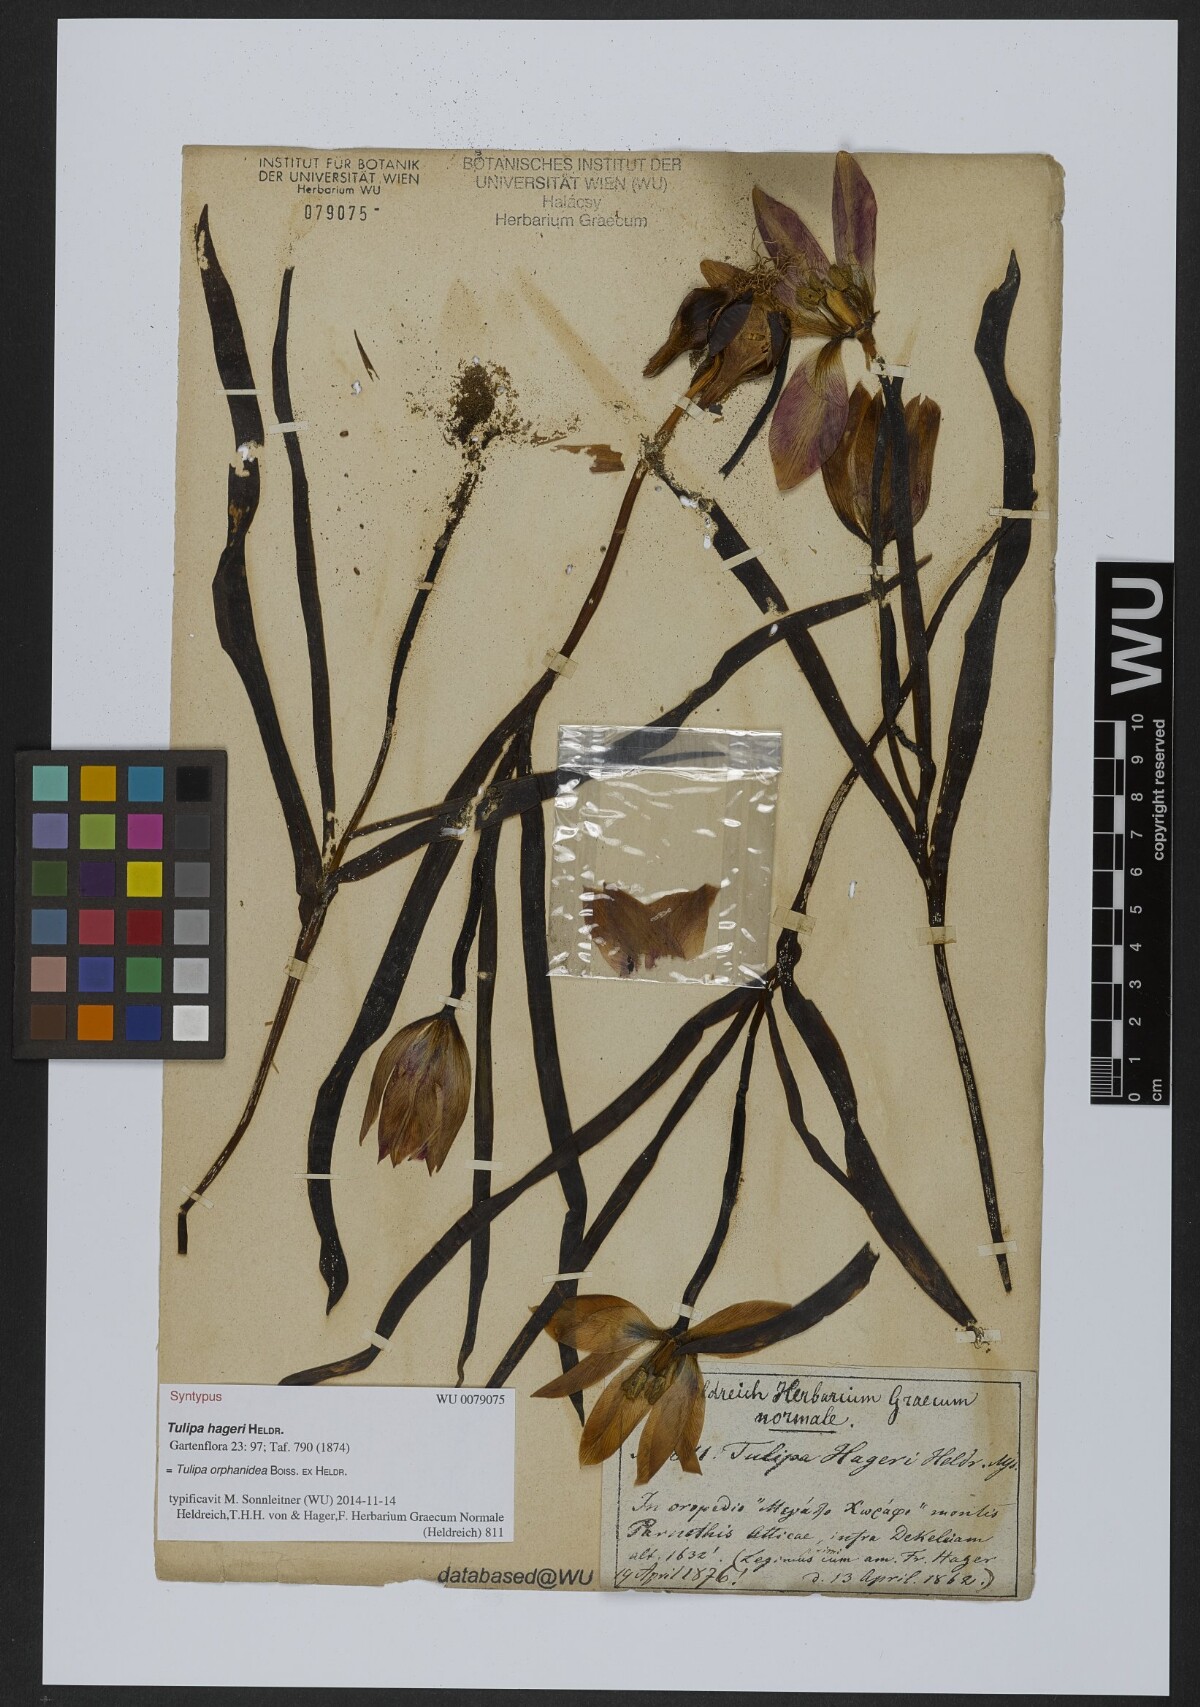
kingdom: Plantae
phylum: Tracheophyta
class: Liliopsida
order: Liliales
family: Liliaceae
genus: Tulipa
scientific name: Tulipa orphanidea
